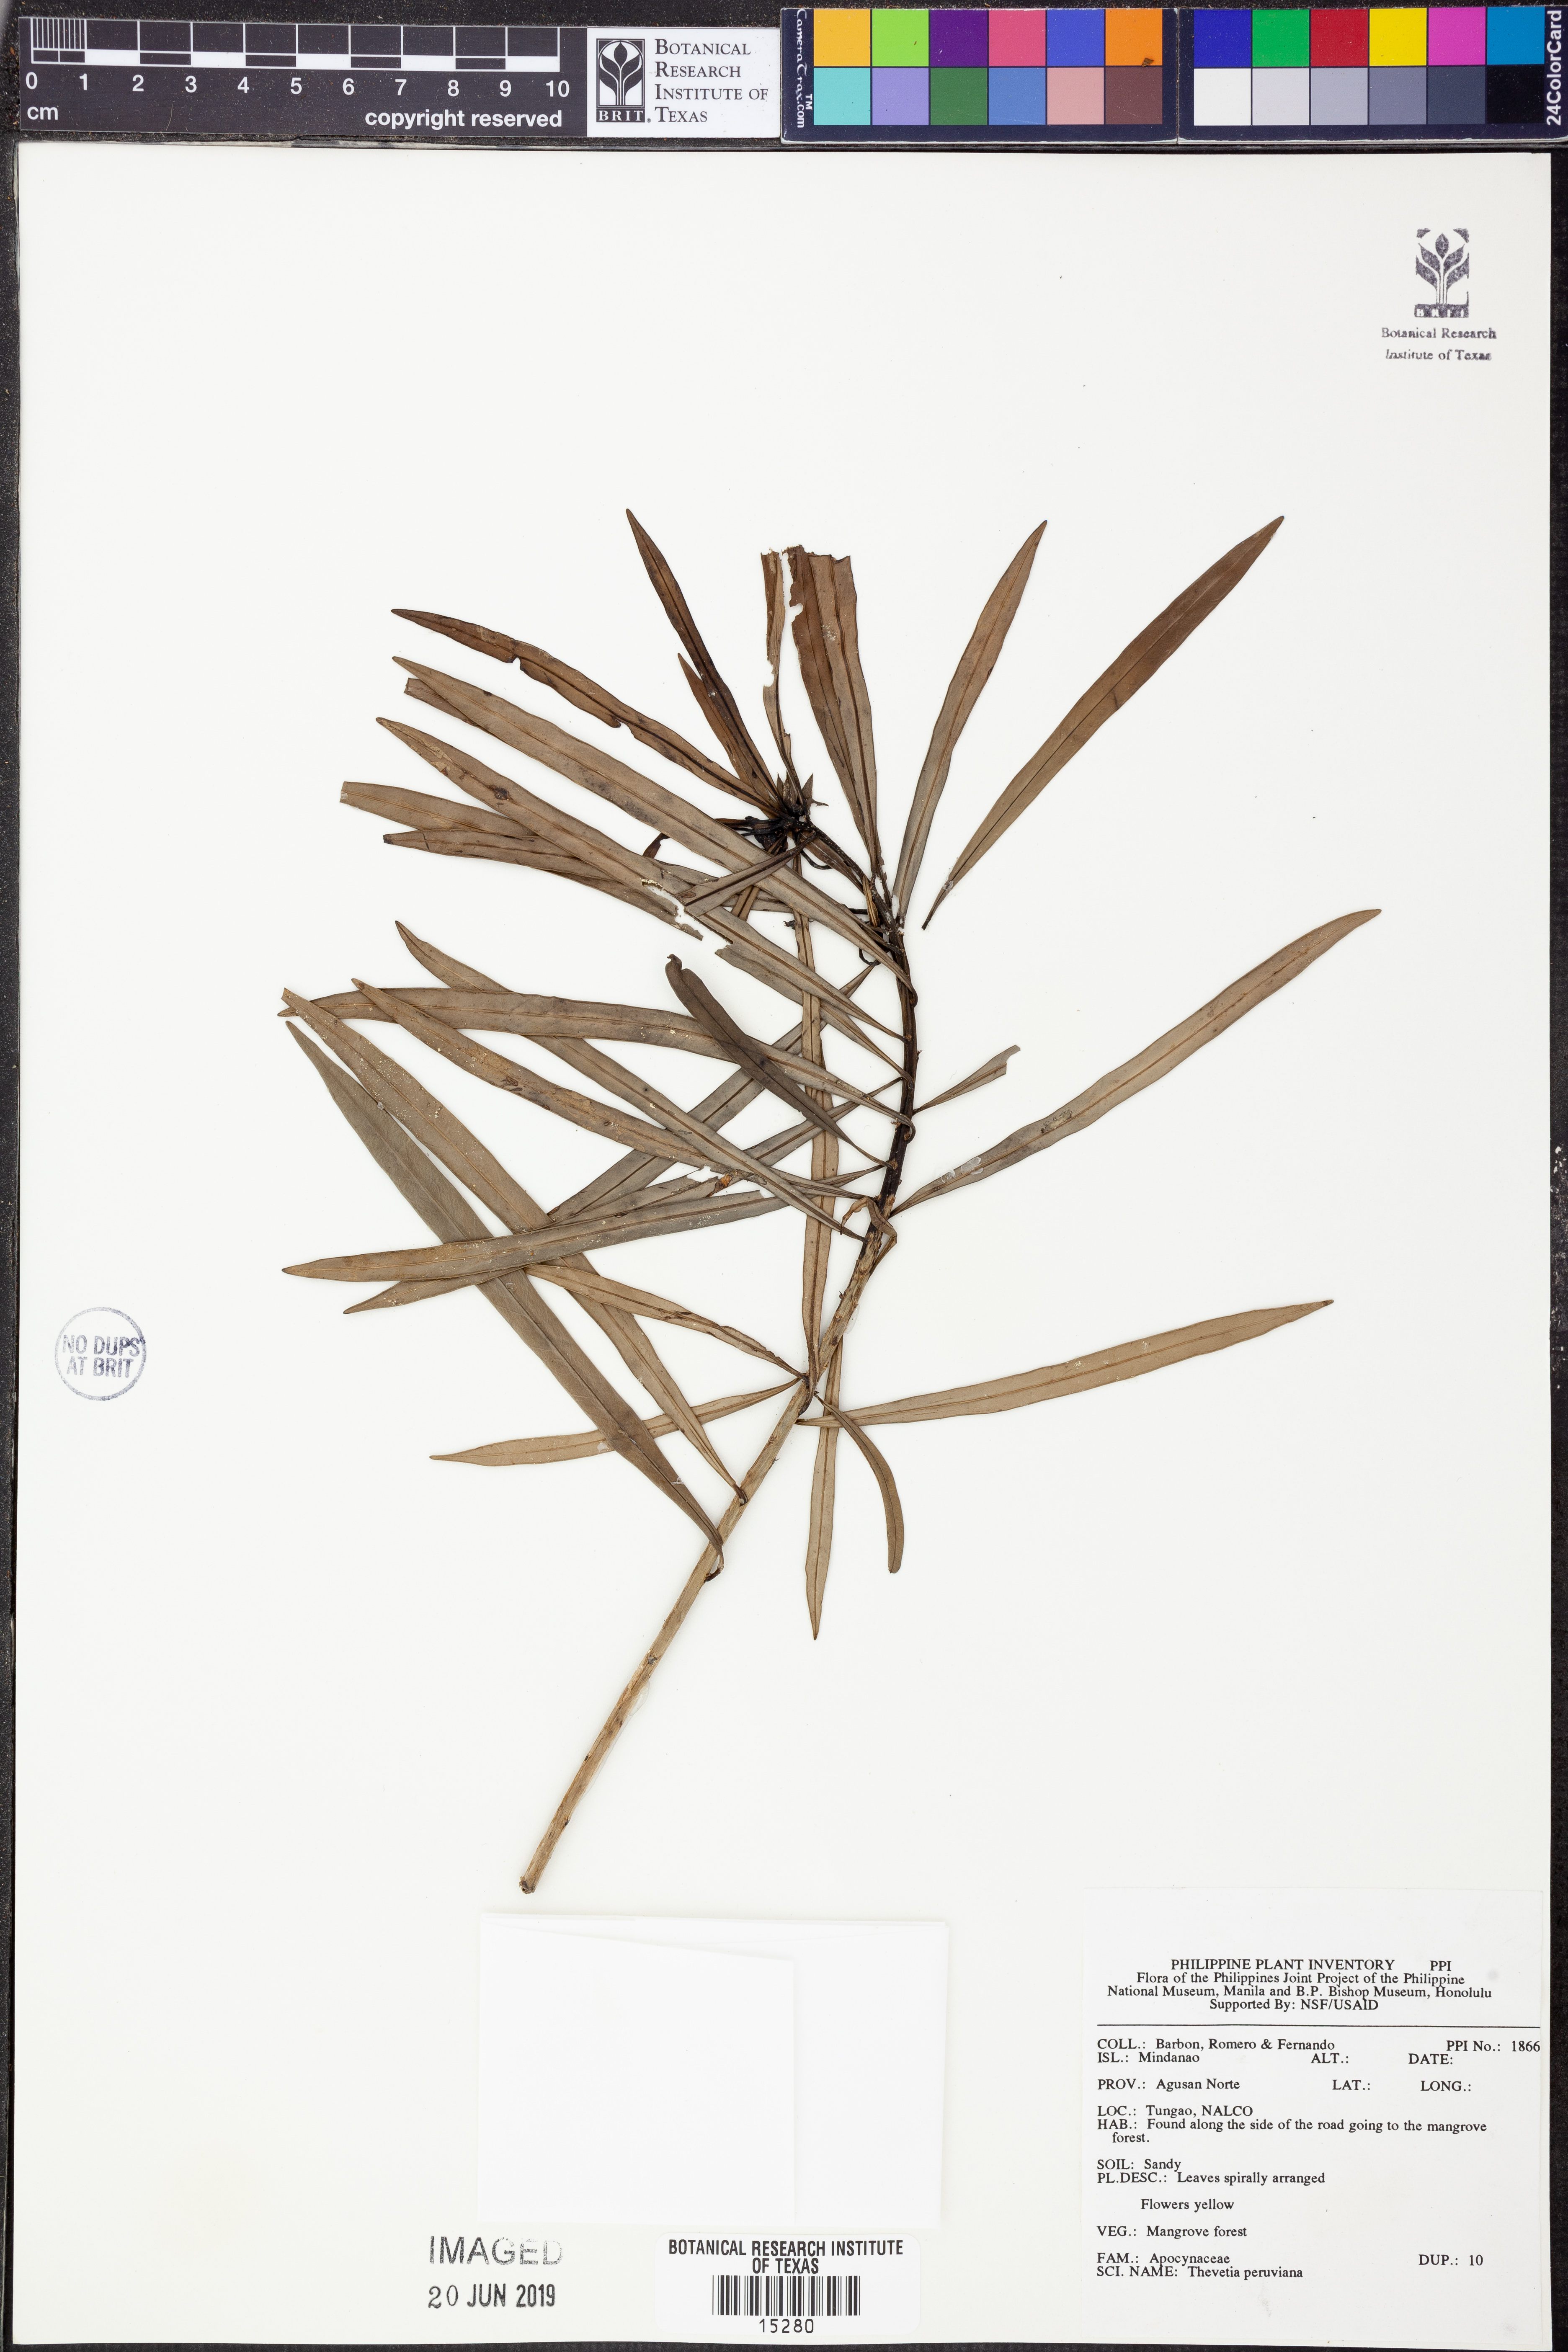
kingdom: Plantae
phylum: Tracheophyta
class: Magnoliopsida
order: Gentianales
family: Apocynaceae
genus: Cascabela
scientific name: Cascabela thevetia
